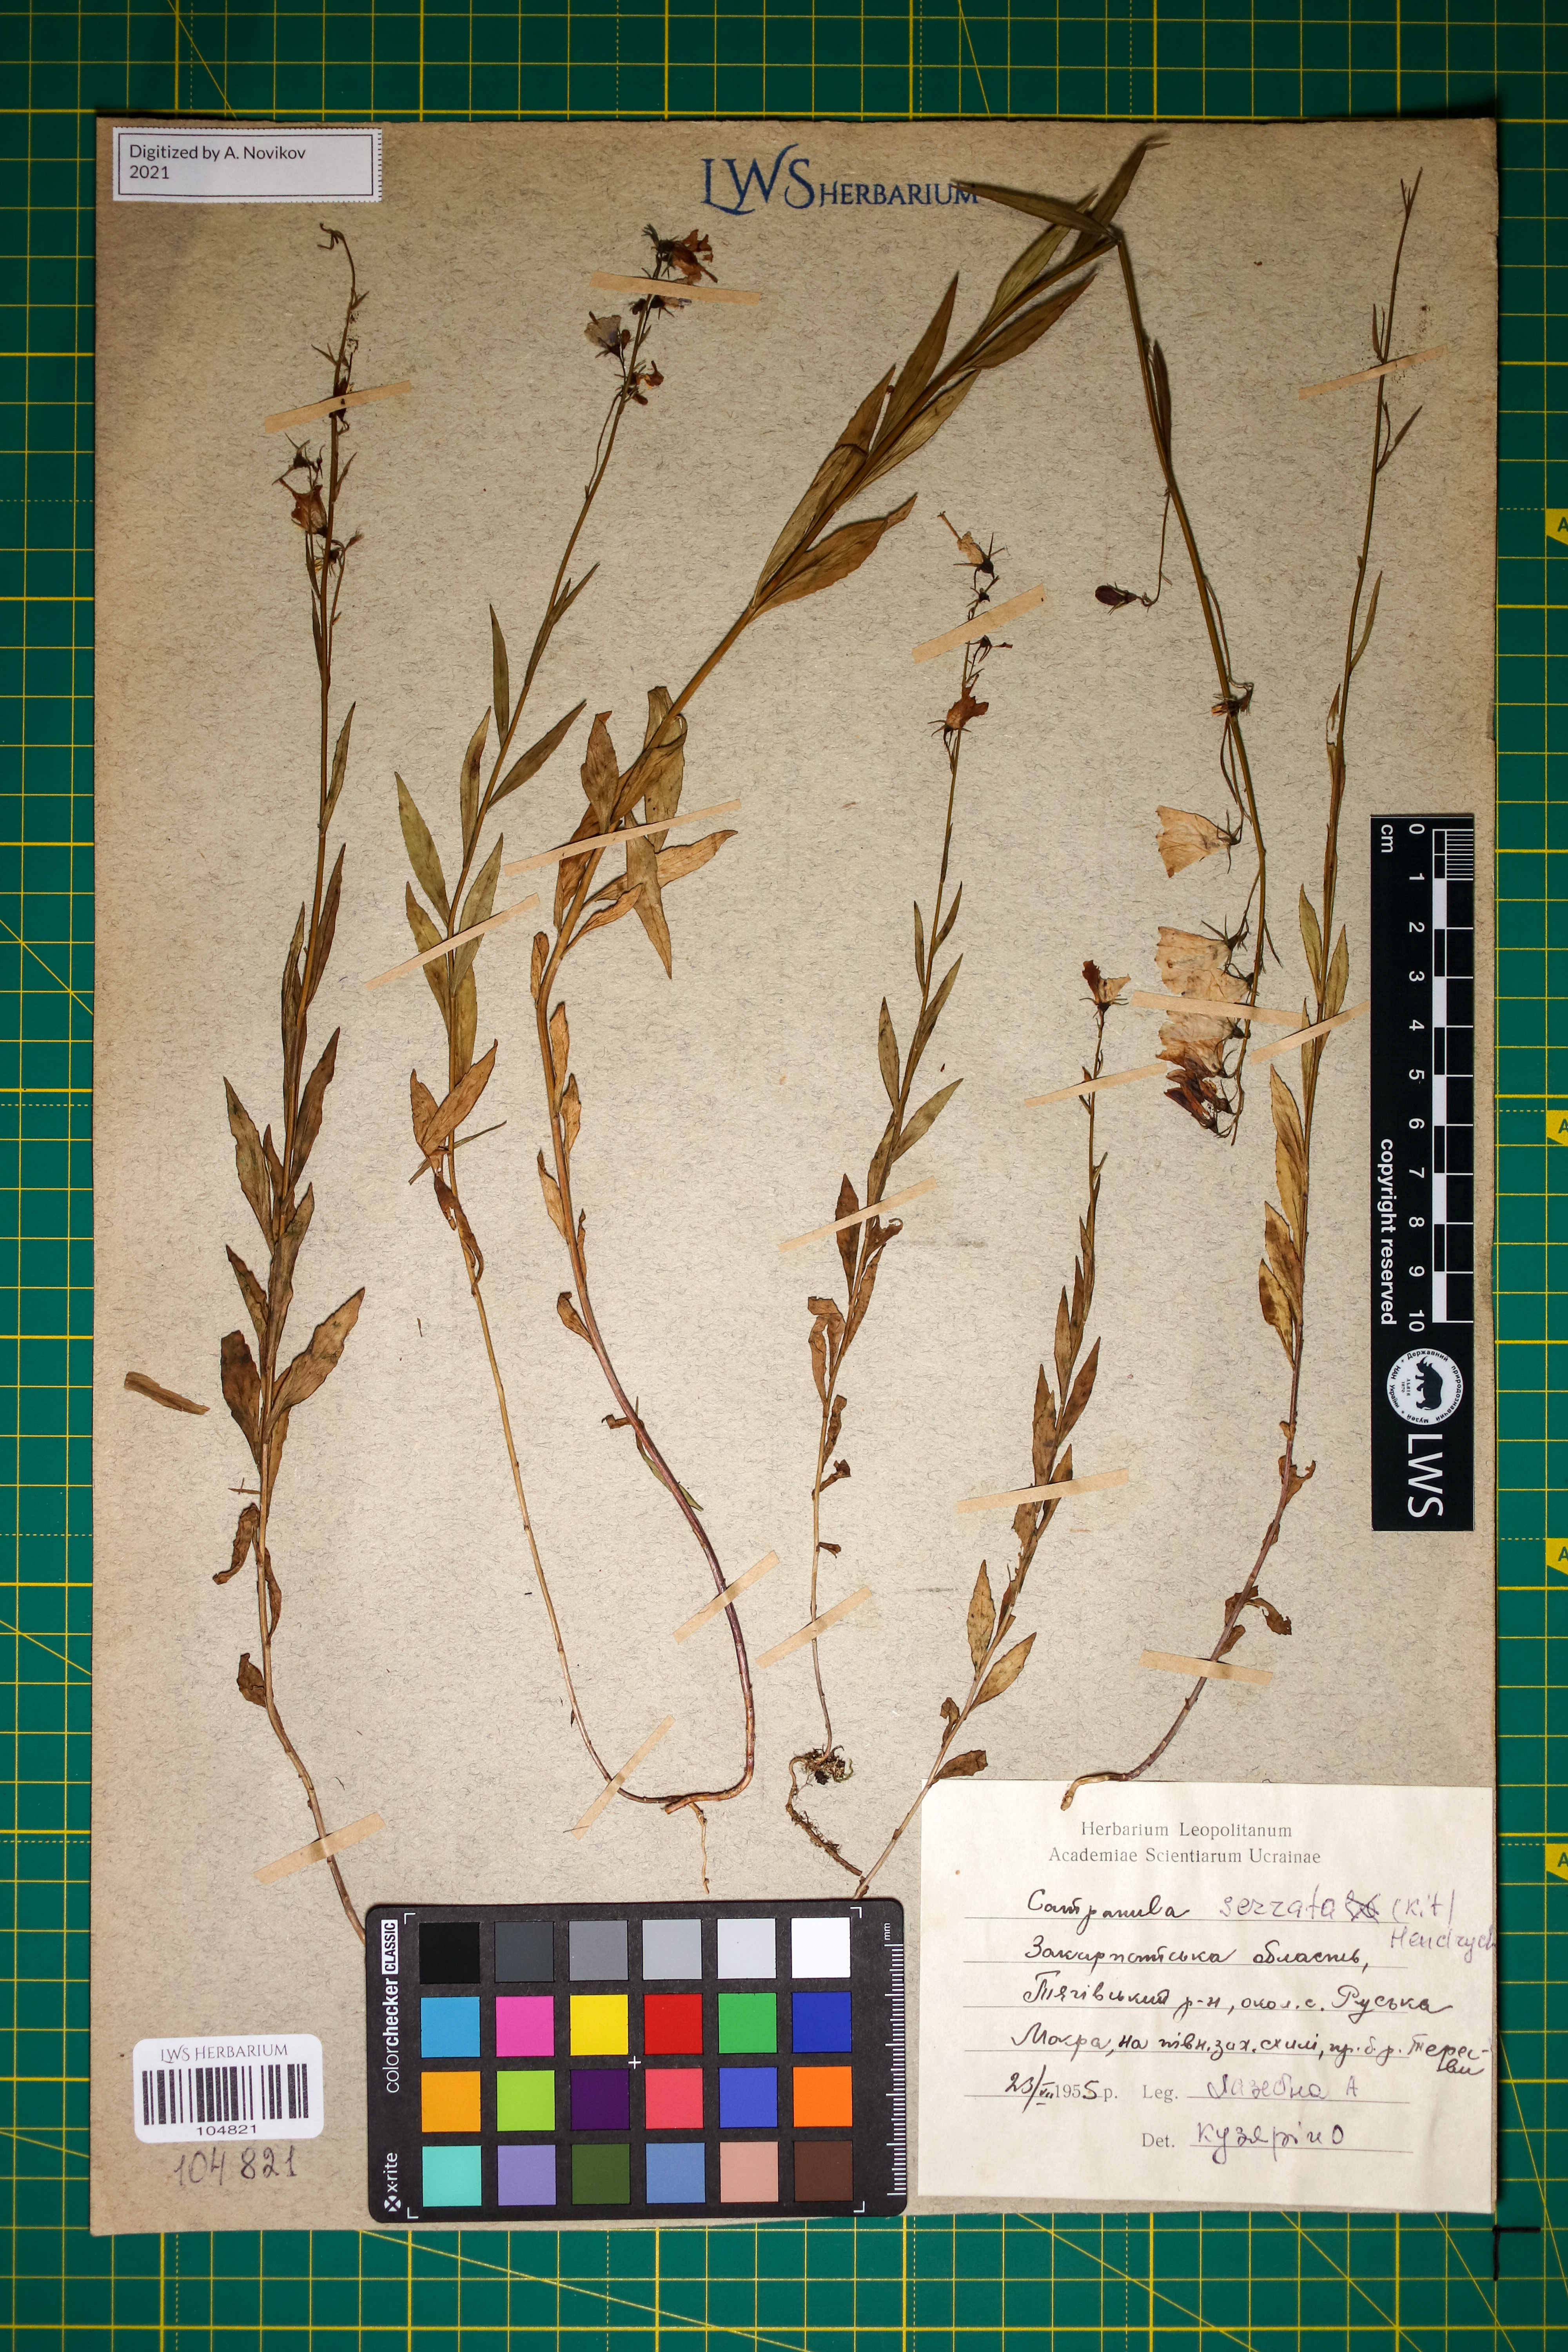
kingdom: Plantae
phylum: Tracheophyta
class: Magnoliopsida
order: Asterales
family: Campanulaceae
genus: Campanula
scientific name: Campanula serrata
